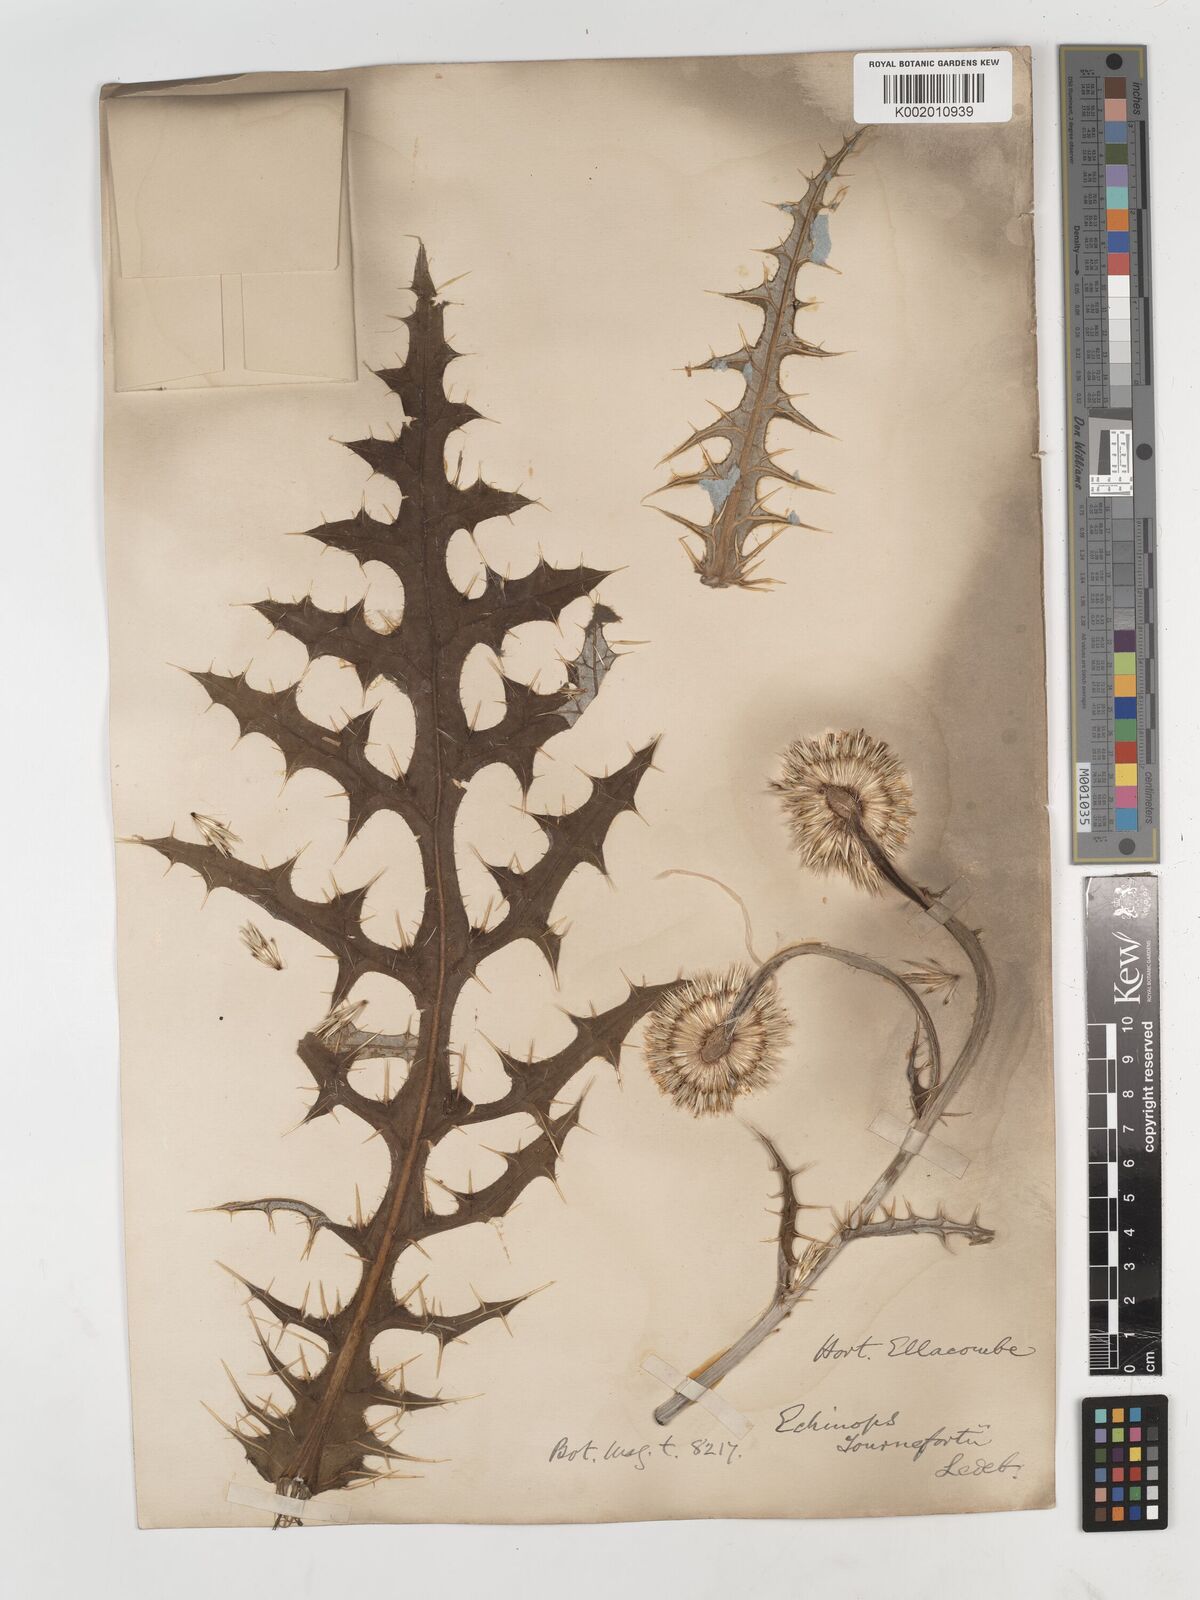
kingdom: Plantae
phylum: Tracheophyta
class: Magnoliopsida
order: Asterales
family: Asteraceae
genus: Echinops
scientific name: Echinops tournefortii
